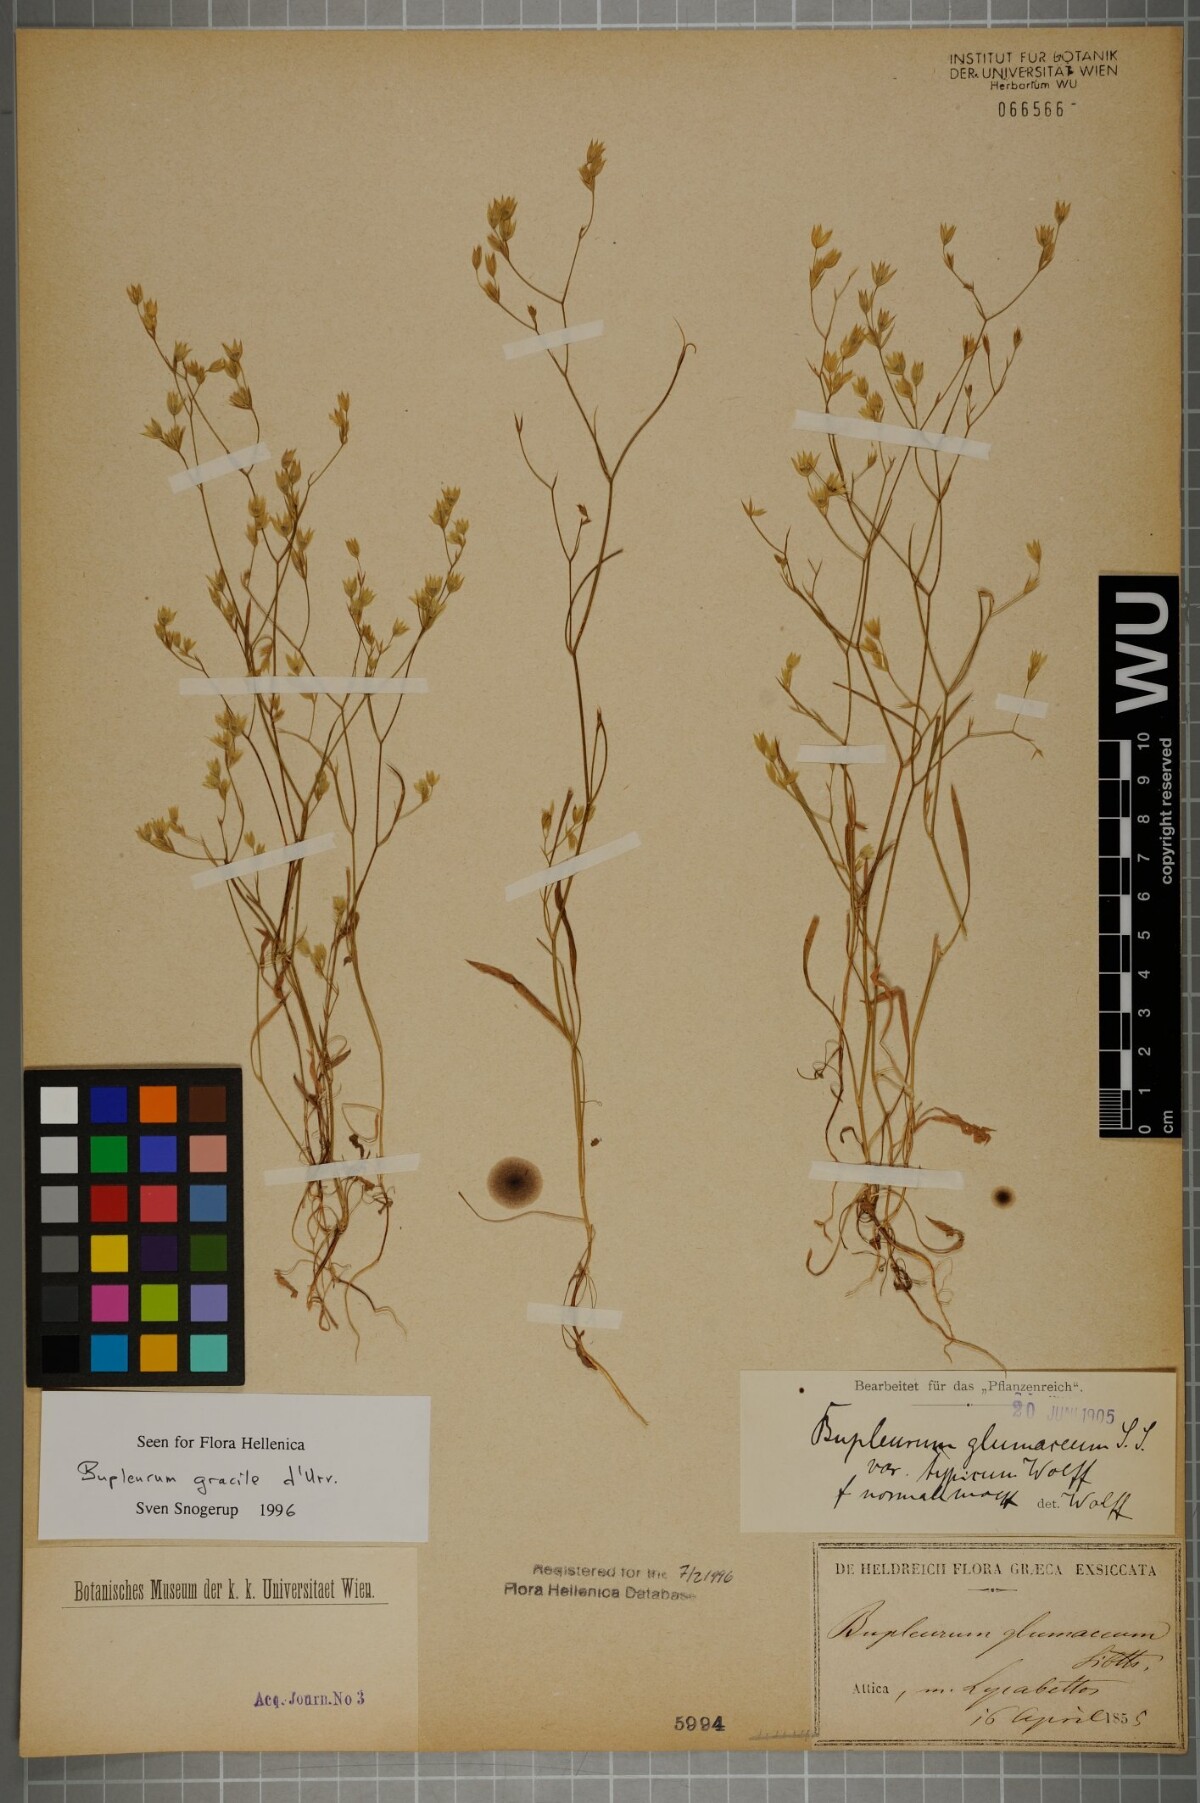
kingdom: Plantae
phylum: Tracheophyta
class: Magnoliopsida
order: Apiales
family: Apiaceae
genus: Bupleurum
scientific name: Bupleurum gracile
